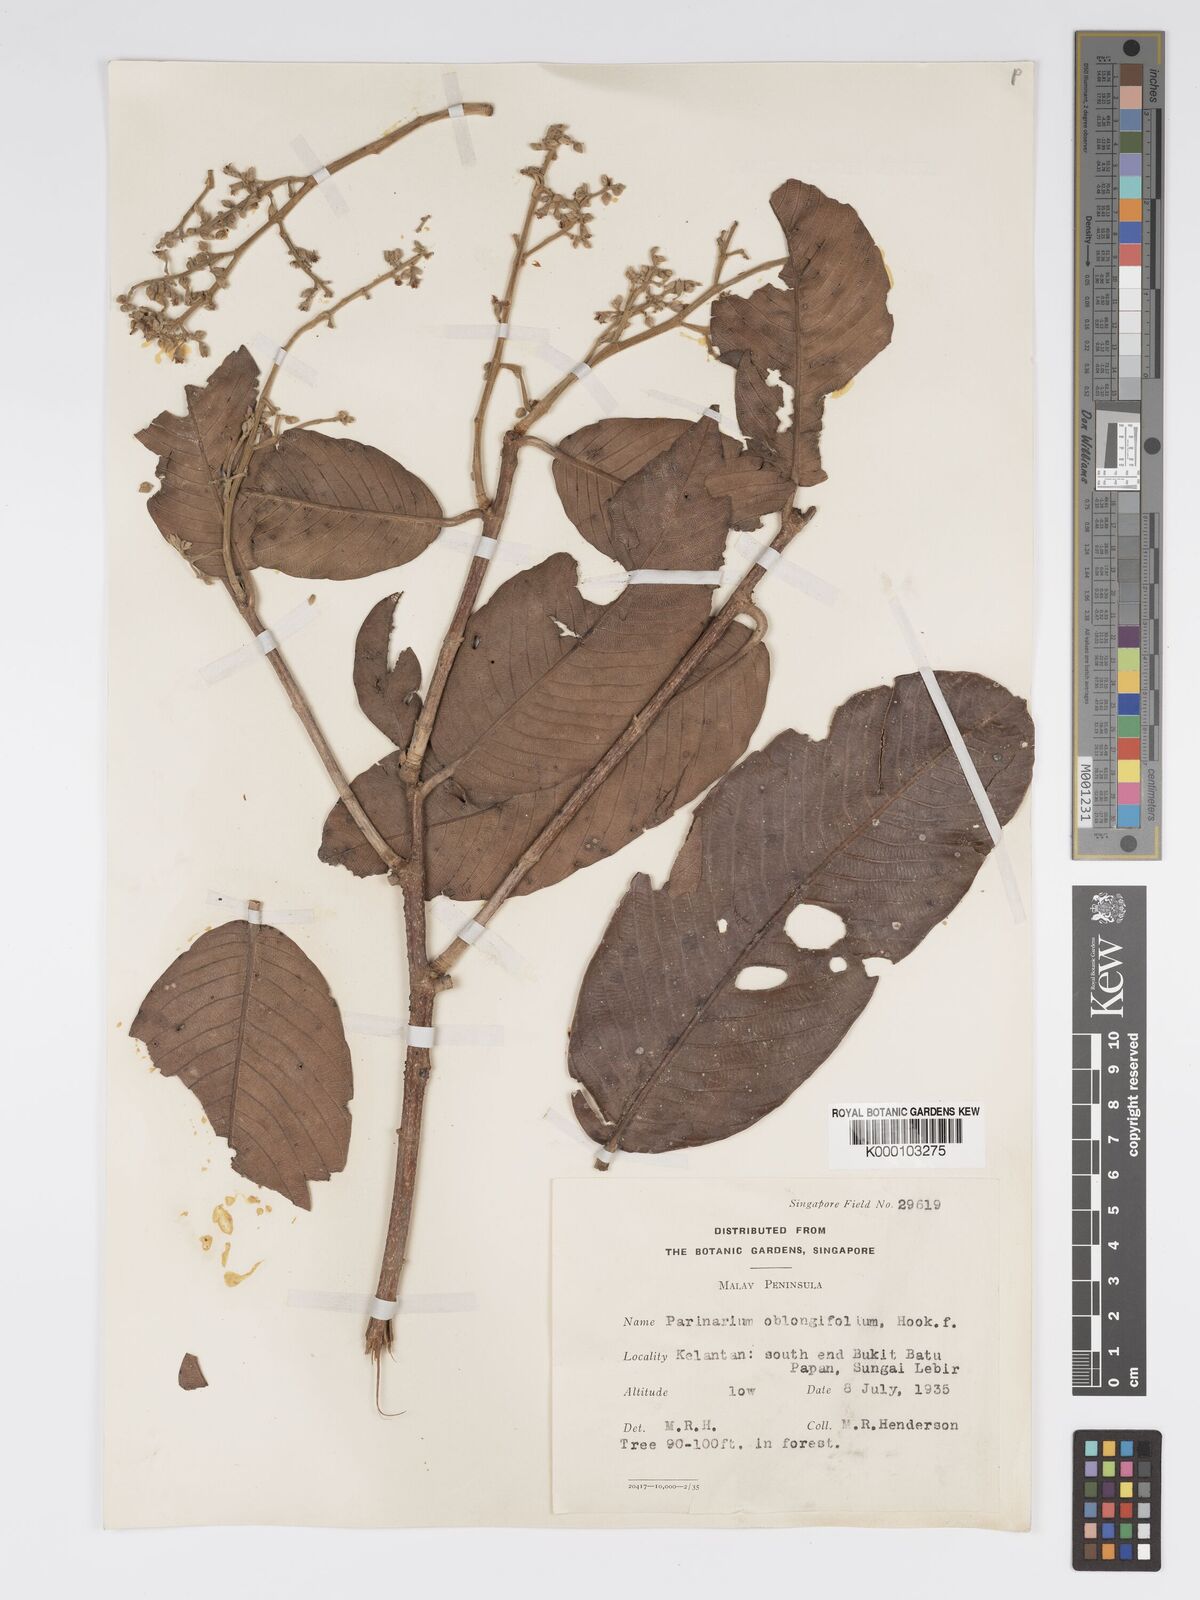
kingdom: Plantae
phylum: Tracheophyta
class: Magnoliopsida
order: Malpighiales
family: Chrysobalanaceae
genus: Parinari
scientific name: Parinari oblongifolia
